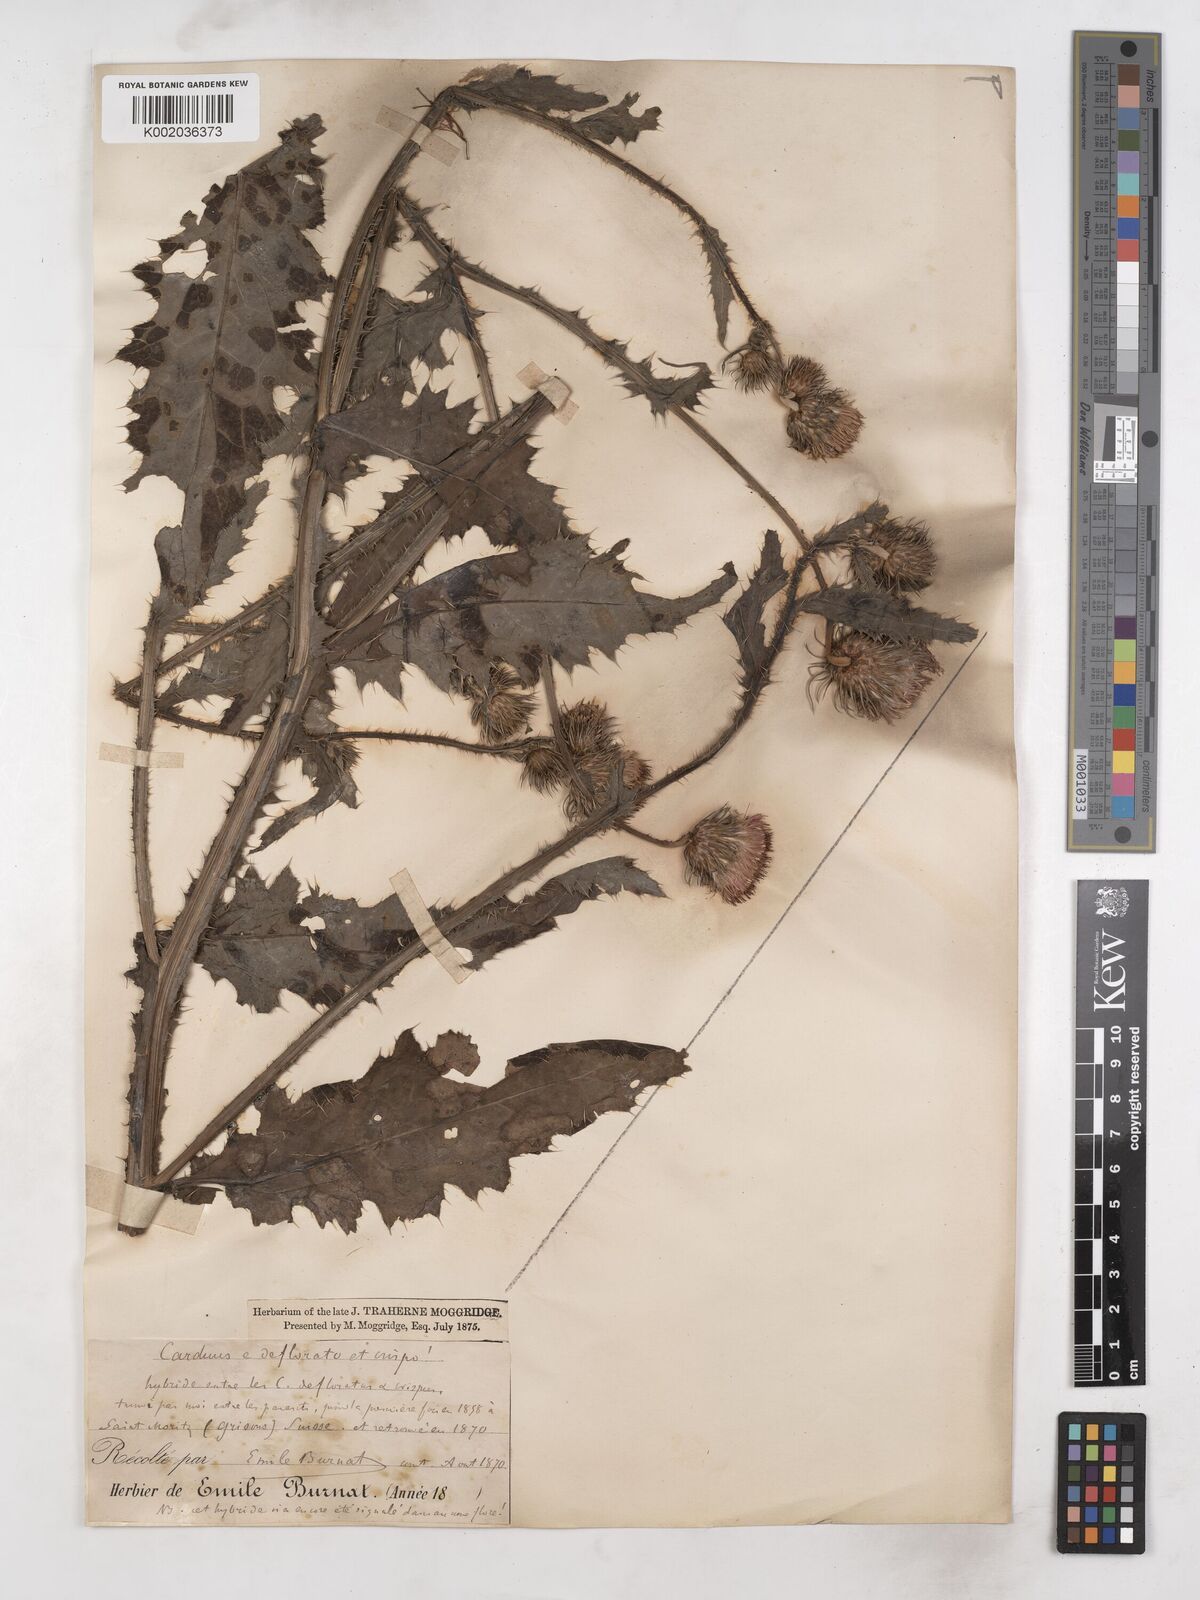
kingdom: Plantae
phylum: Tracheophyta
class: Magnoliopsida
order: Asterales
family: Asteraceae
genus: Carduus
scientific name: Carduus defloratus
